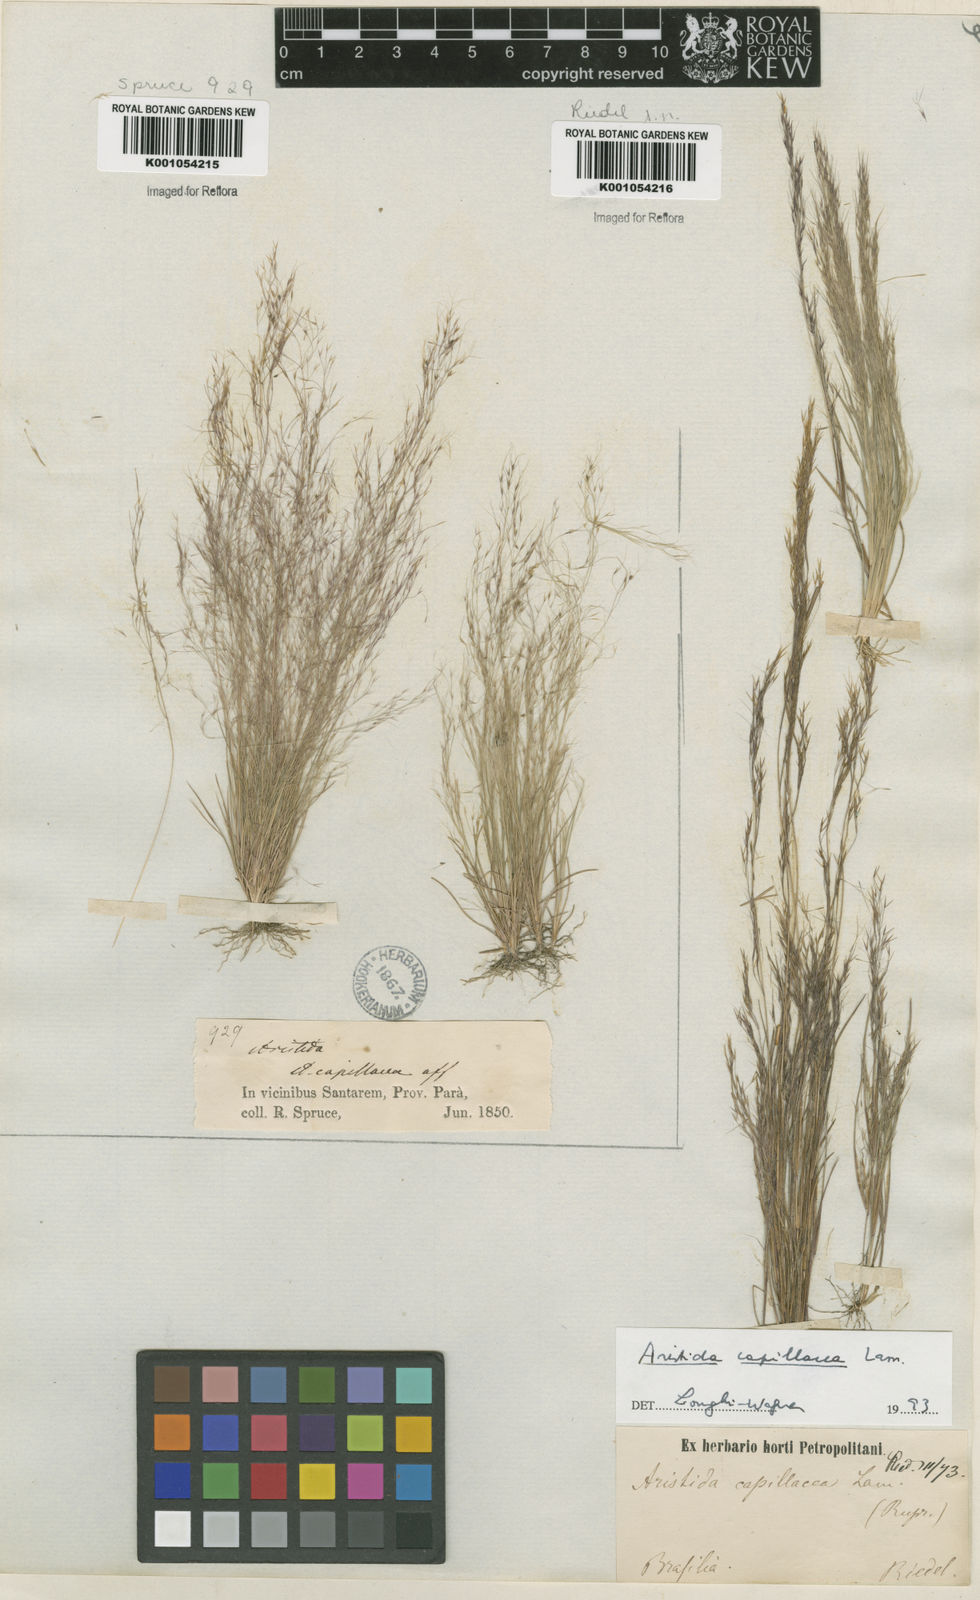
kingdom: Plantae
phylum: Tracheophyta
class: Liliopsida
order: Poales
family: Poaceae
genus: Aristida
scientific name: Aristida capillacea
